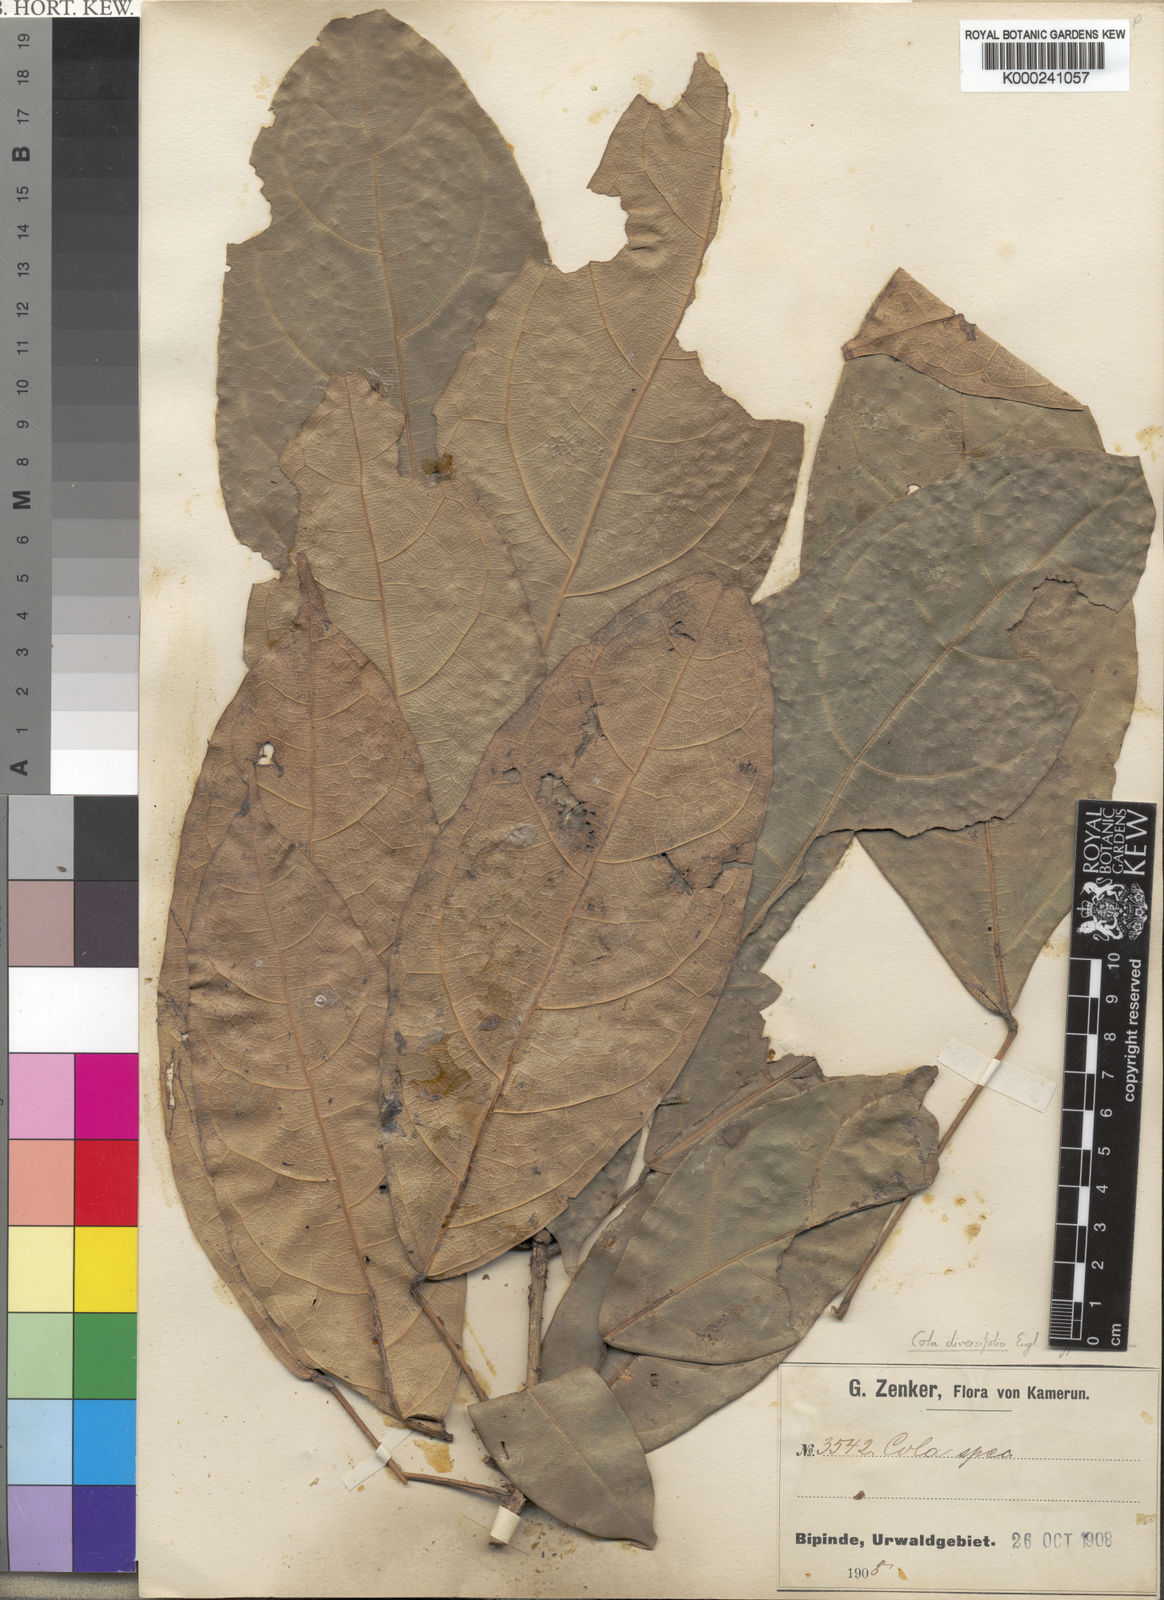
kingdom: Plantae
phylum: Tracheophyta
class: Magnoliopsida
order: Malvales
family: Malvaceae
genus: Cola
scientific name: Cola diversifolia
